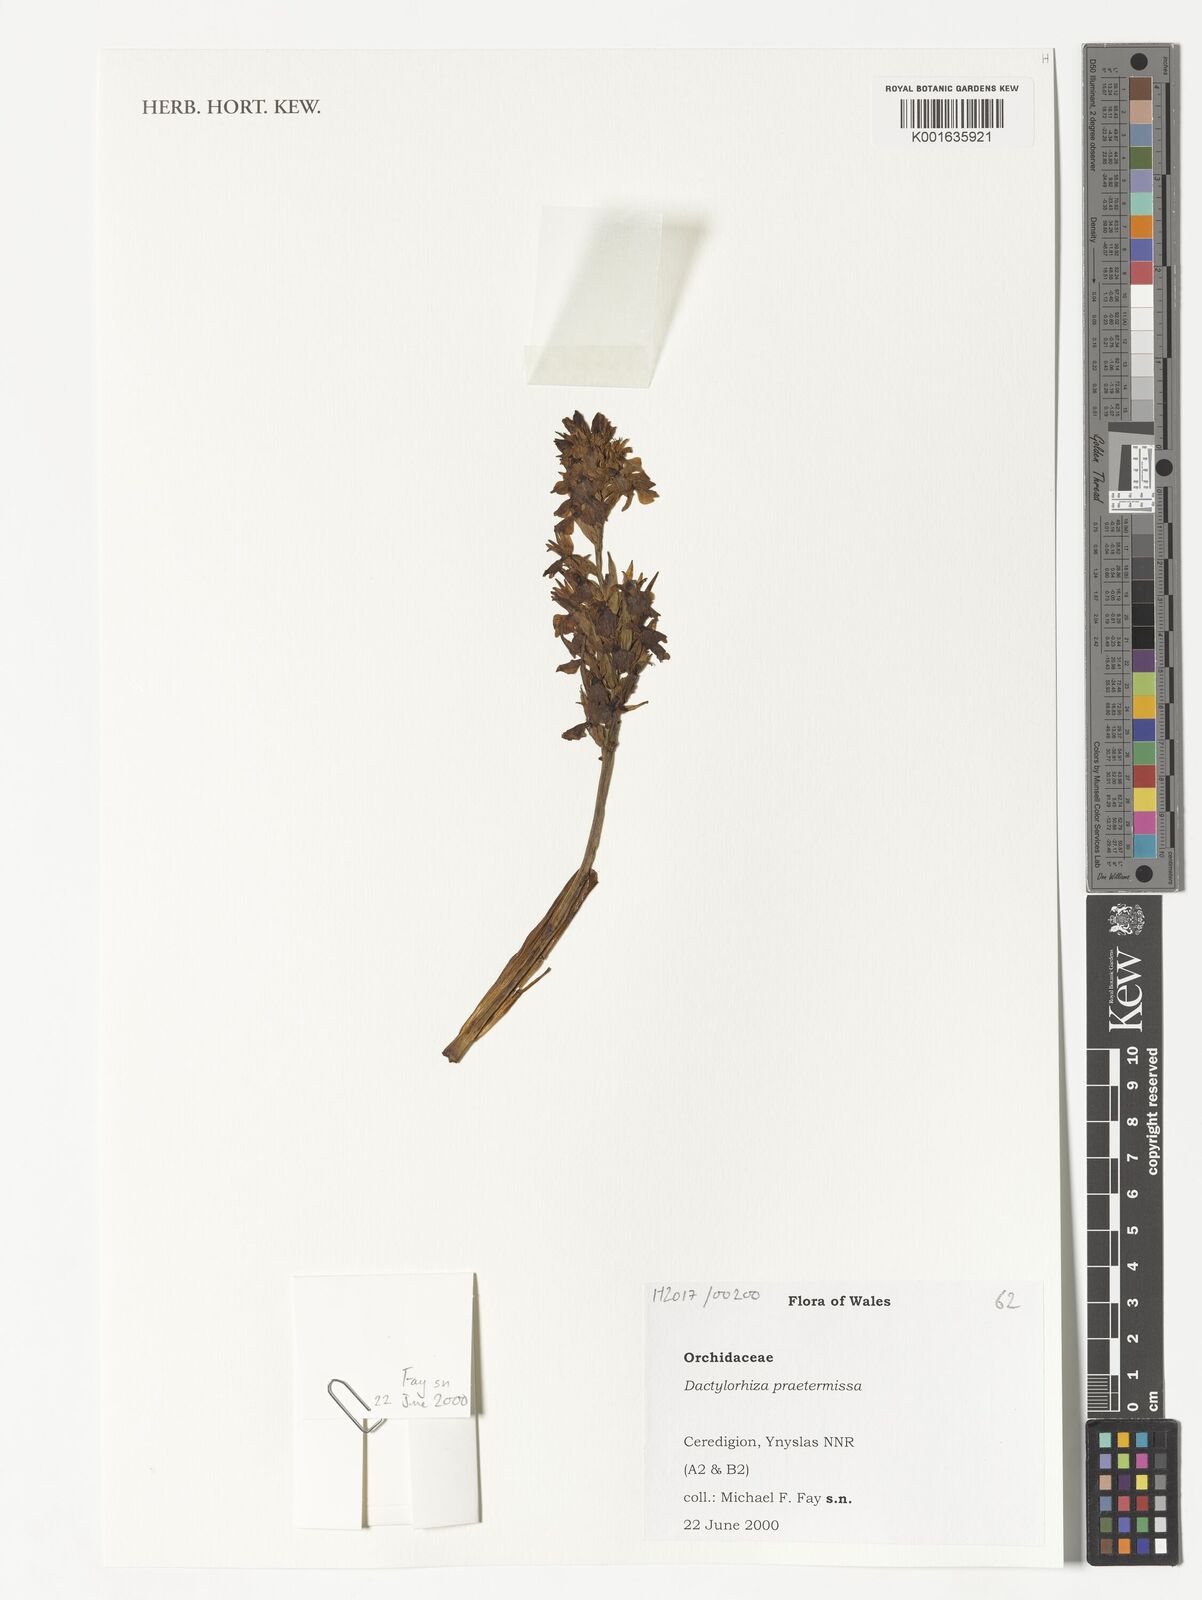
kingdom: Plantae
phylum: Tracheophyta
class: Liliopsida
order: Asparagales
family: Orchidaceae
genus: Dactylorhiza
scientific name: Dactylorhiza majalis
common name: Marsh orchid
